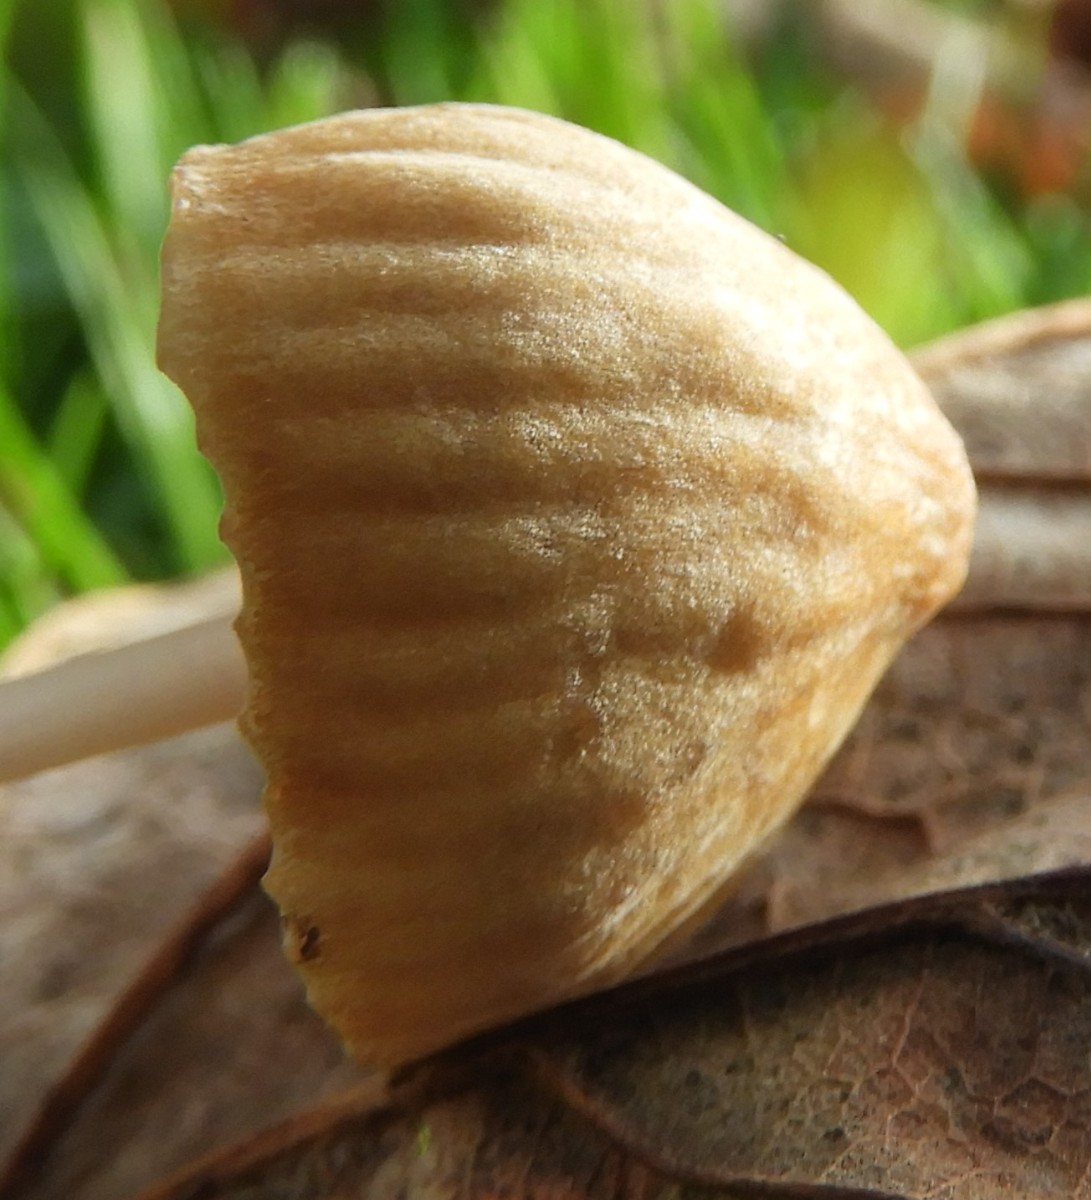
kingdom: Fungi
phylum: Basidiomycota
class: Agaricomycetes
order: Agaricales
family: Mycenaceae
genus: Mycena
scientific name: Mycena olivaceomarginata
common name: brunægget huesvamp
